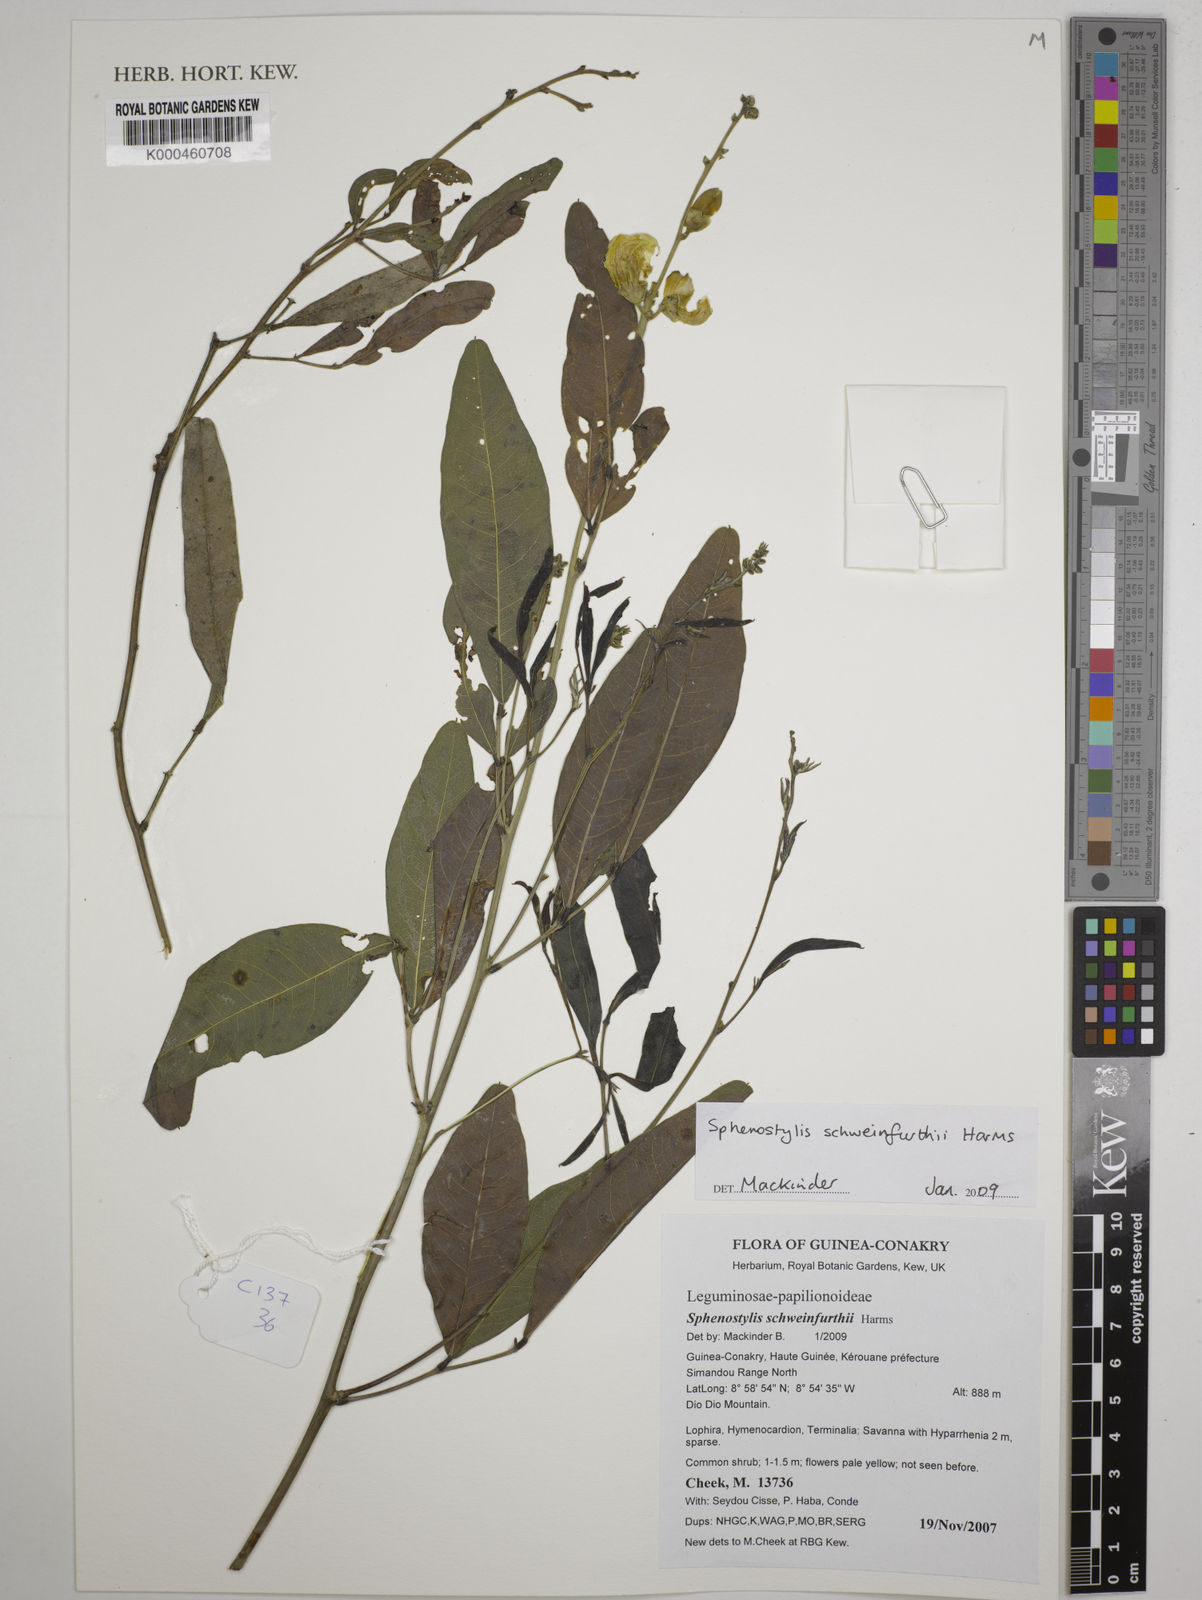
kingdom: Plantae
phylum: Tracheophyta
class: Magnoliopsida
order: Fabales
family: Fabaceae
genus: Sphenostylis
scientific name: Sphenostylis schweinfurthii
